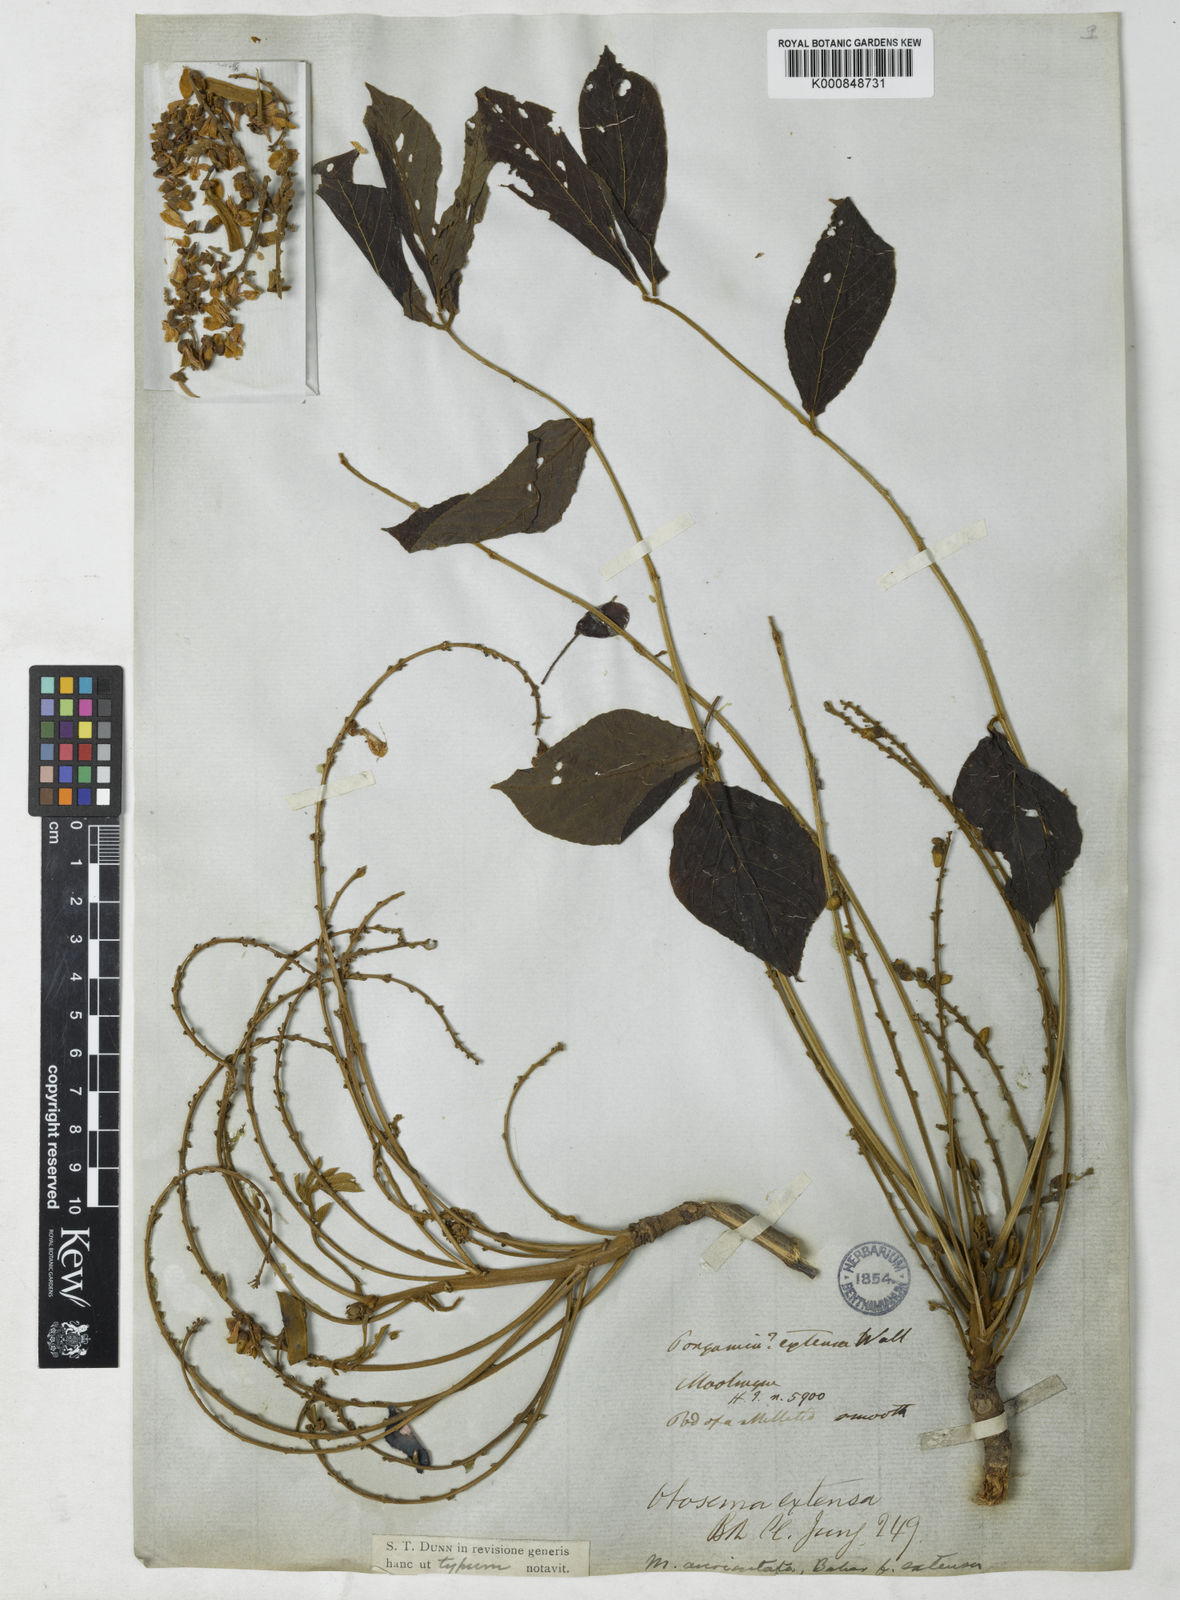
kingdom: Plantae
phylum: Tracheophyta
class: Magnoliopsida
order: Fabales
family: Fabaceae
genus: Millettia
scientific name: Millettia extensa
